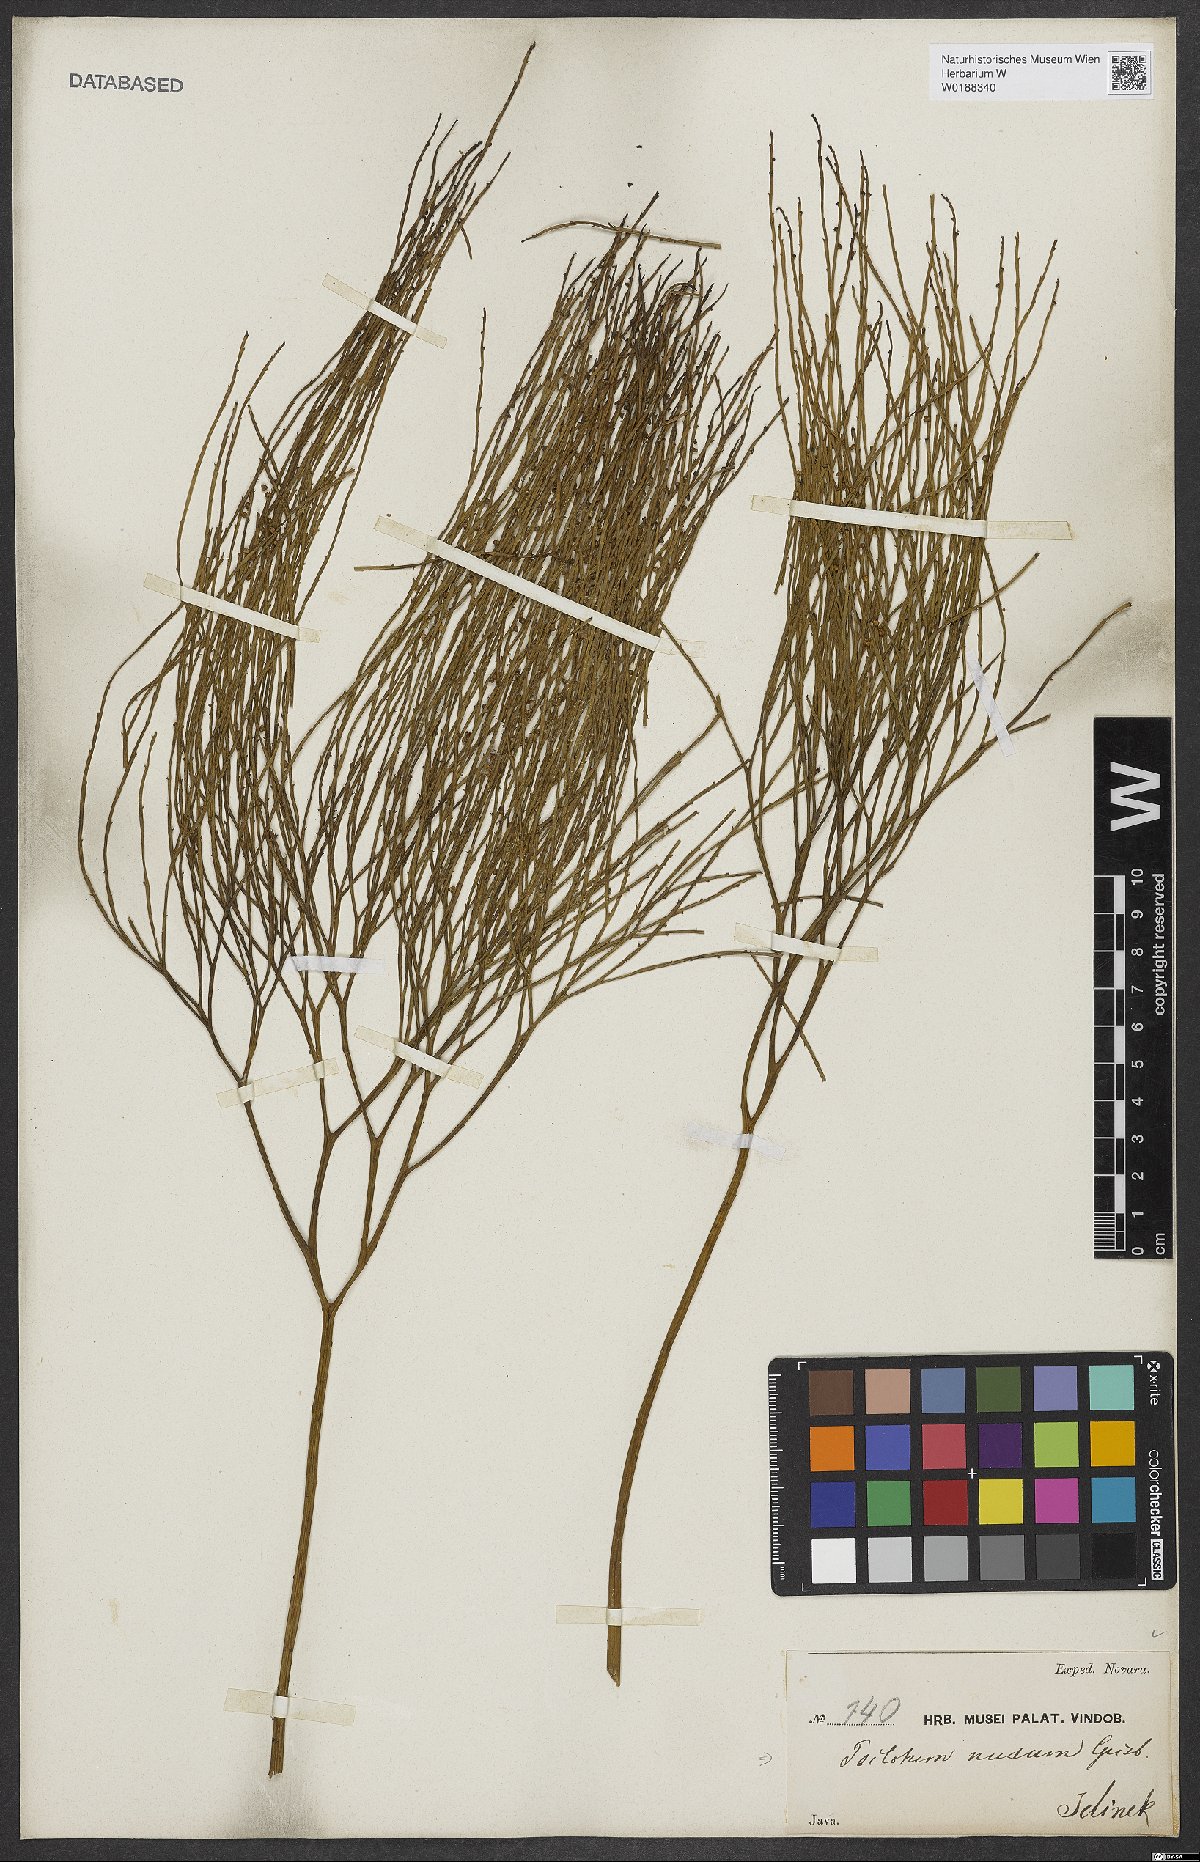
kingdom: Plantae
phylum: Tracheophyta
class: Polypodiopsida
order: Psilotales
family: Psilotaceae
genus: Psilotum
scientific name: Psilotum nudum
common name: Skeleton fork fern
